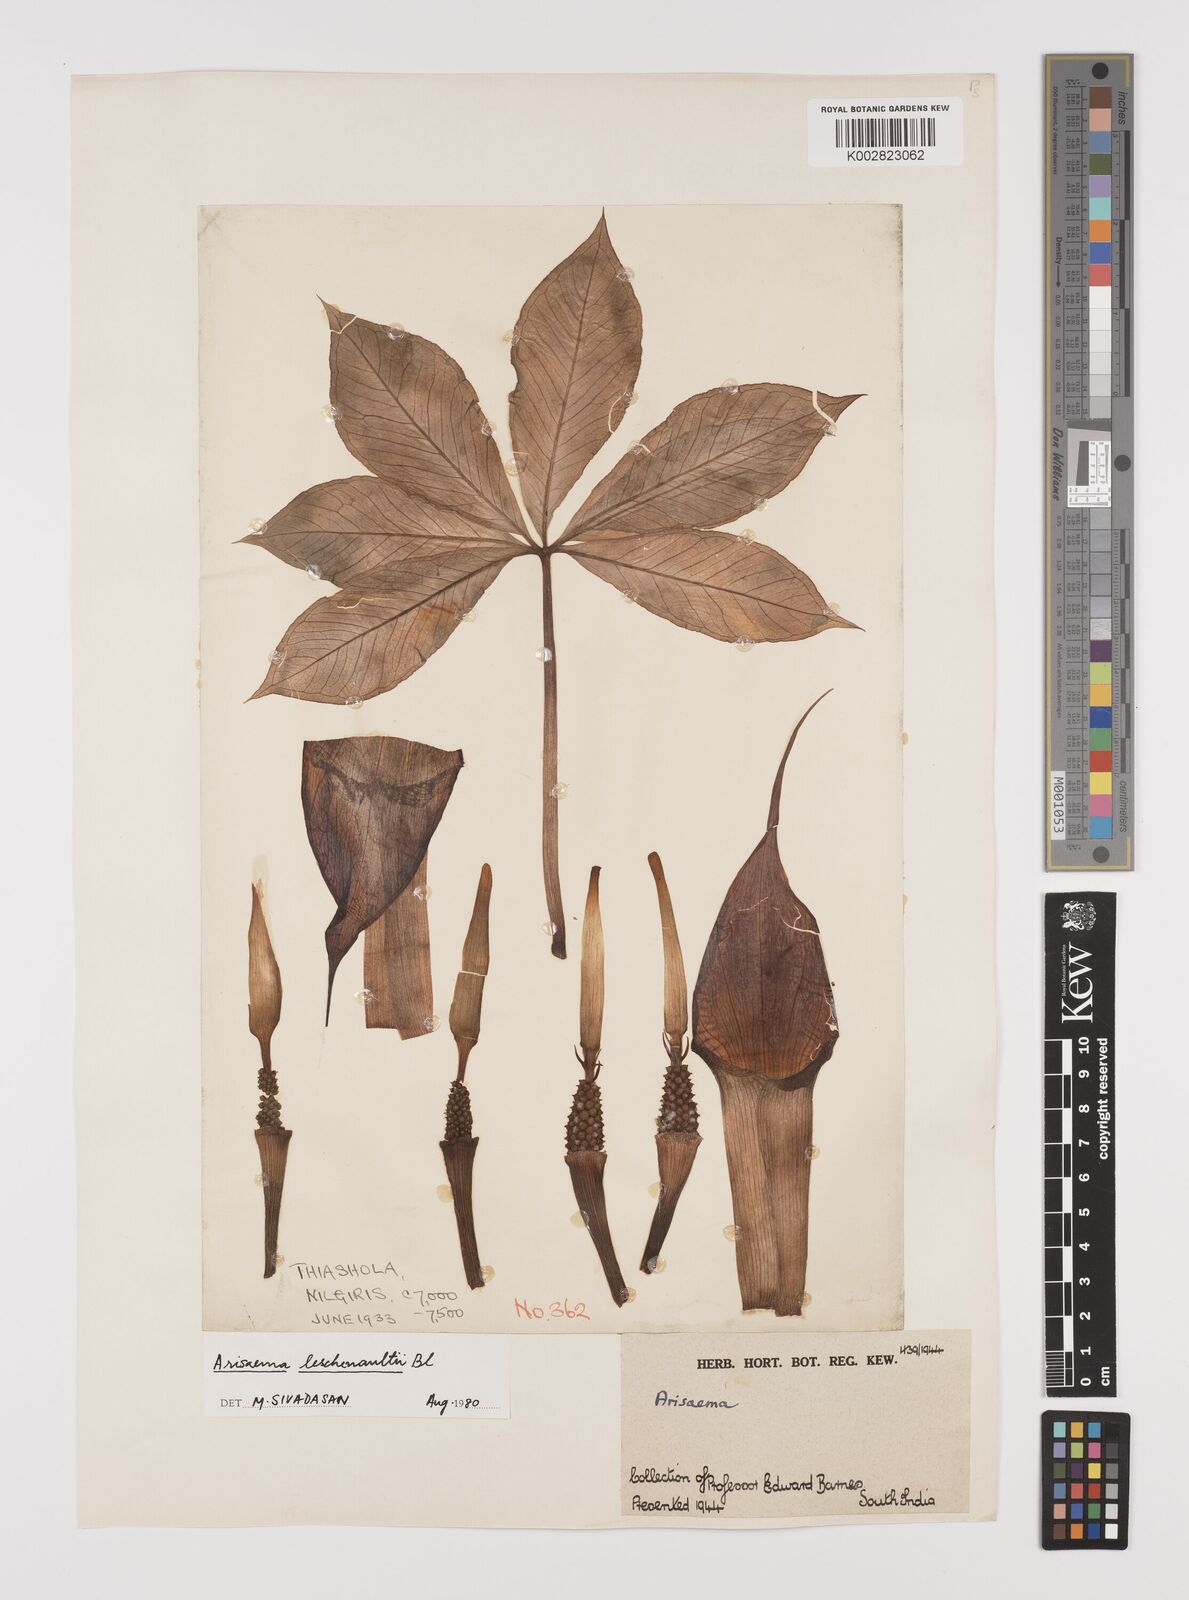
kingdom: Plantae
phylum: Tracheophyta
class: Liliopsida
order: Alismatales
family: Araceae
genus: Arisaema
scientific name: Arisaema leschenaultii
